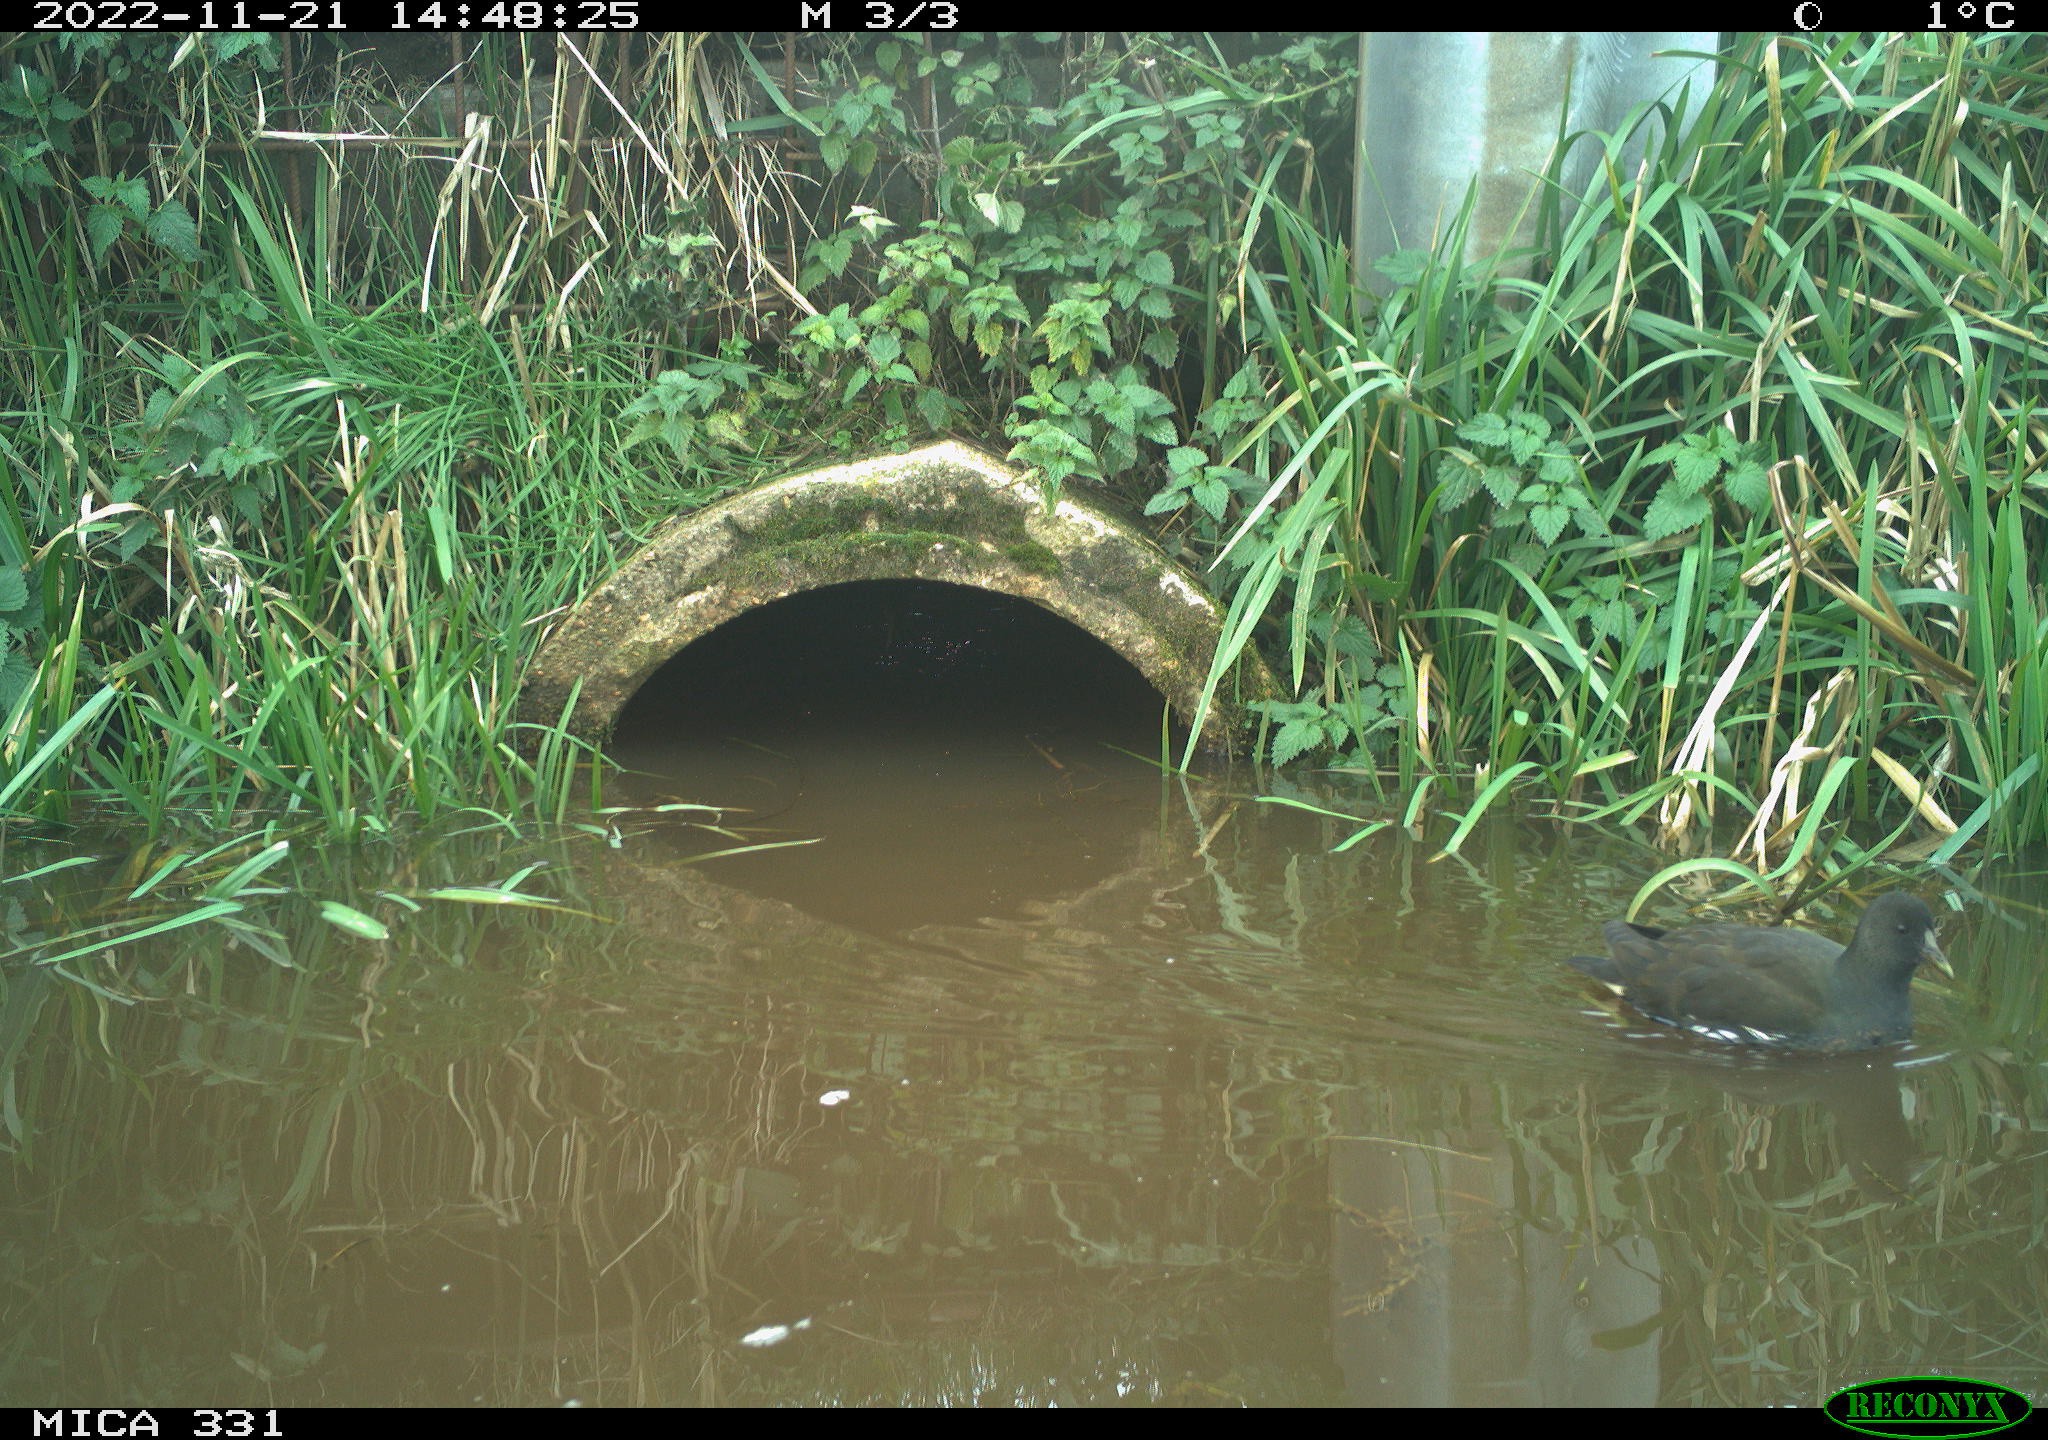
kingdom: Animalia
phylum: Chordata
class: Aves
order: Gruiformes
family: Rallidae
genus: Gallinula
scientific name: Gallinula chloropus
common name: Common moorhen
